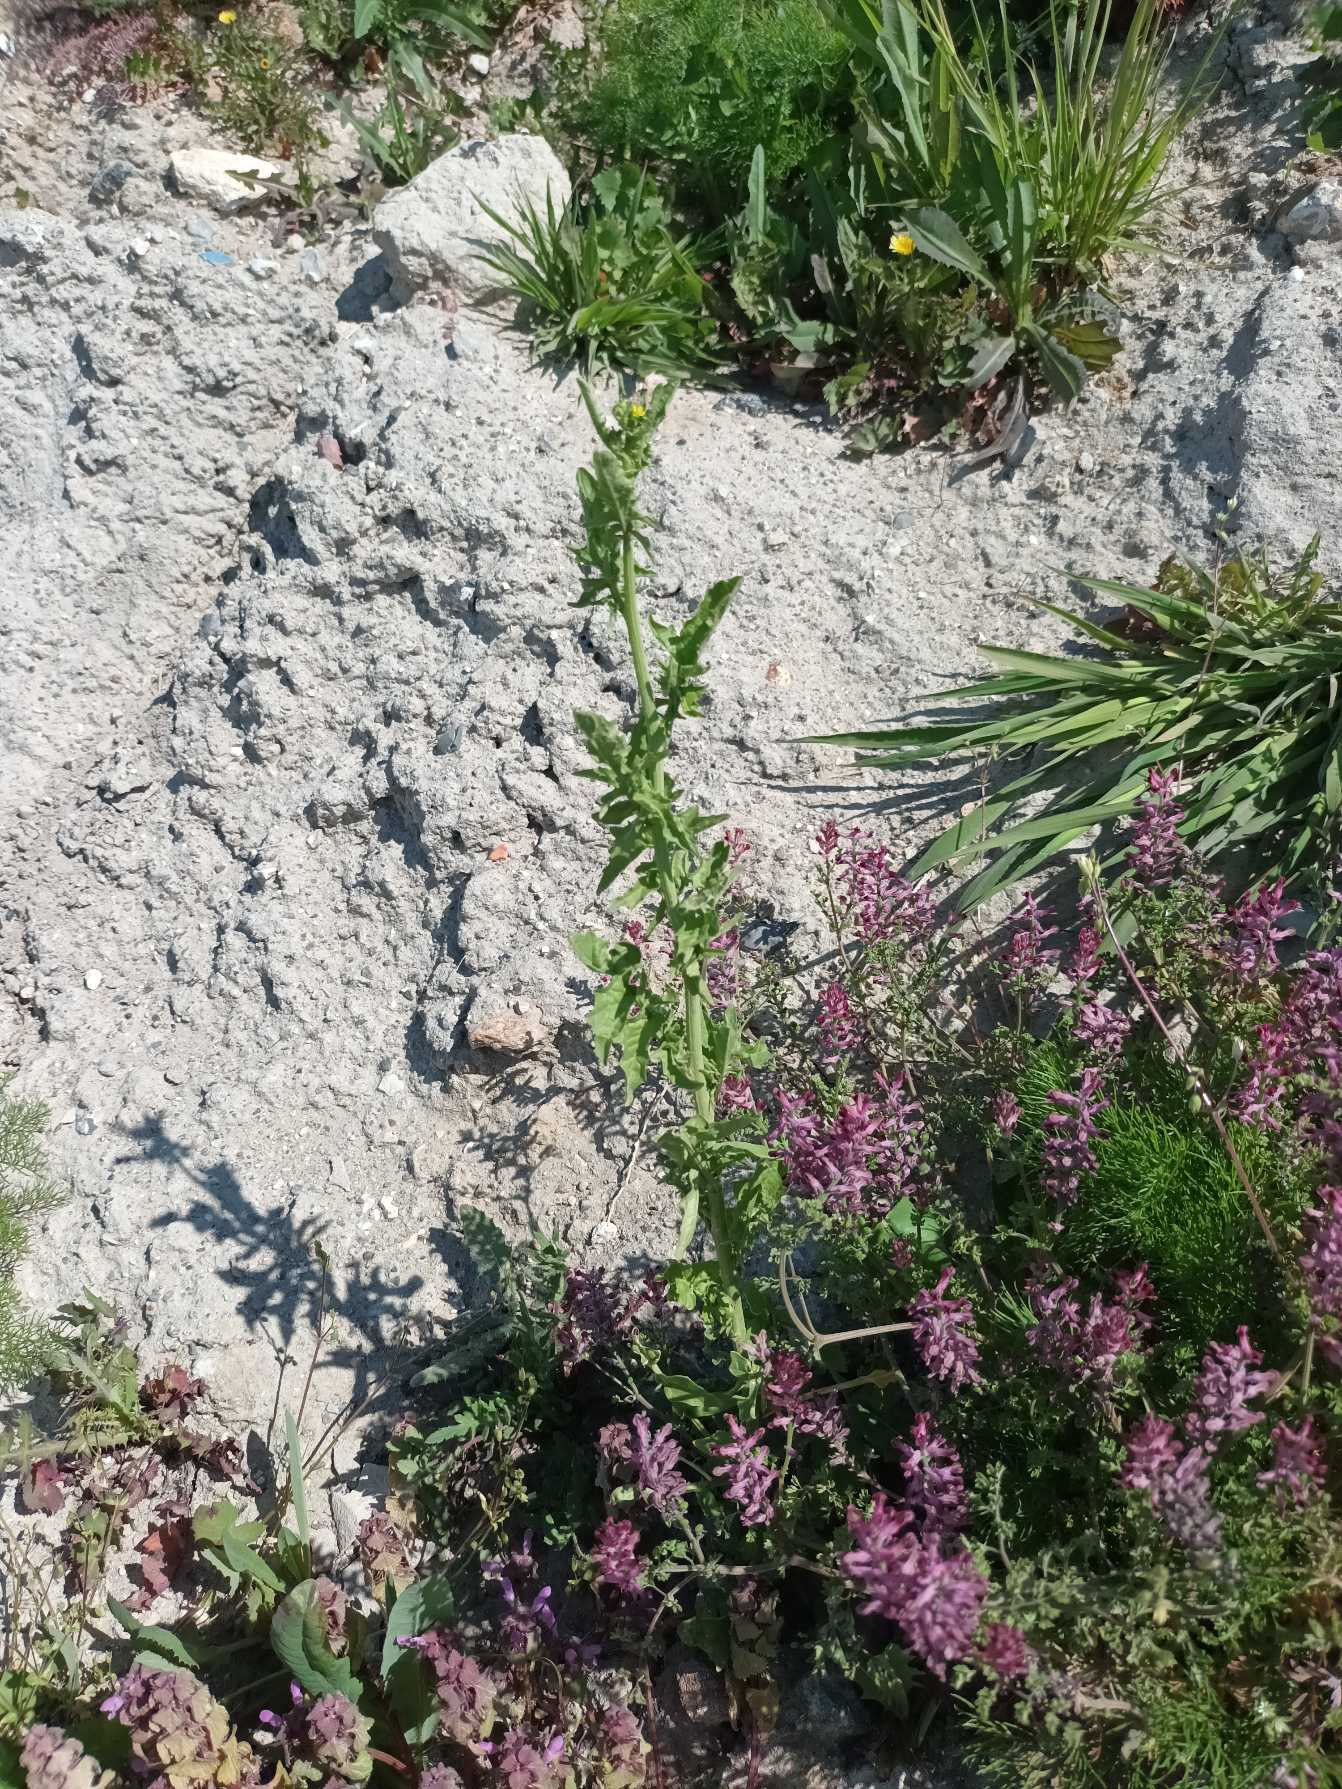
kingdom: Plantae
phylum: Tracheophyta
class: Magnoliopsida
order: Brassicales
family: Brassicaceae
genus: Sisymbrium
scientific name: Sisymbrium officinale
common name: Rank vejsennep
